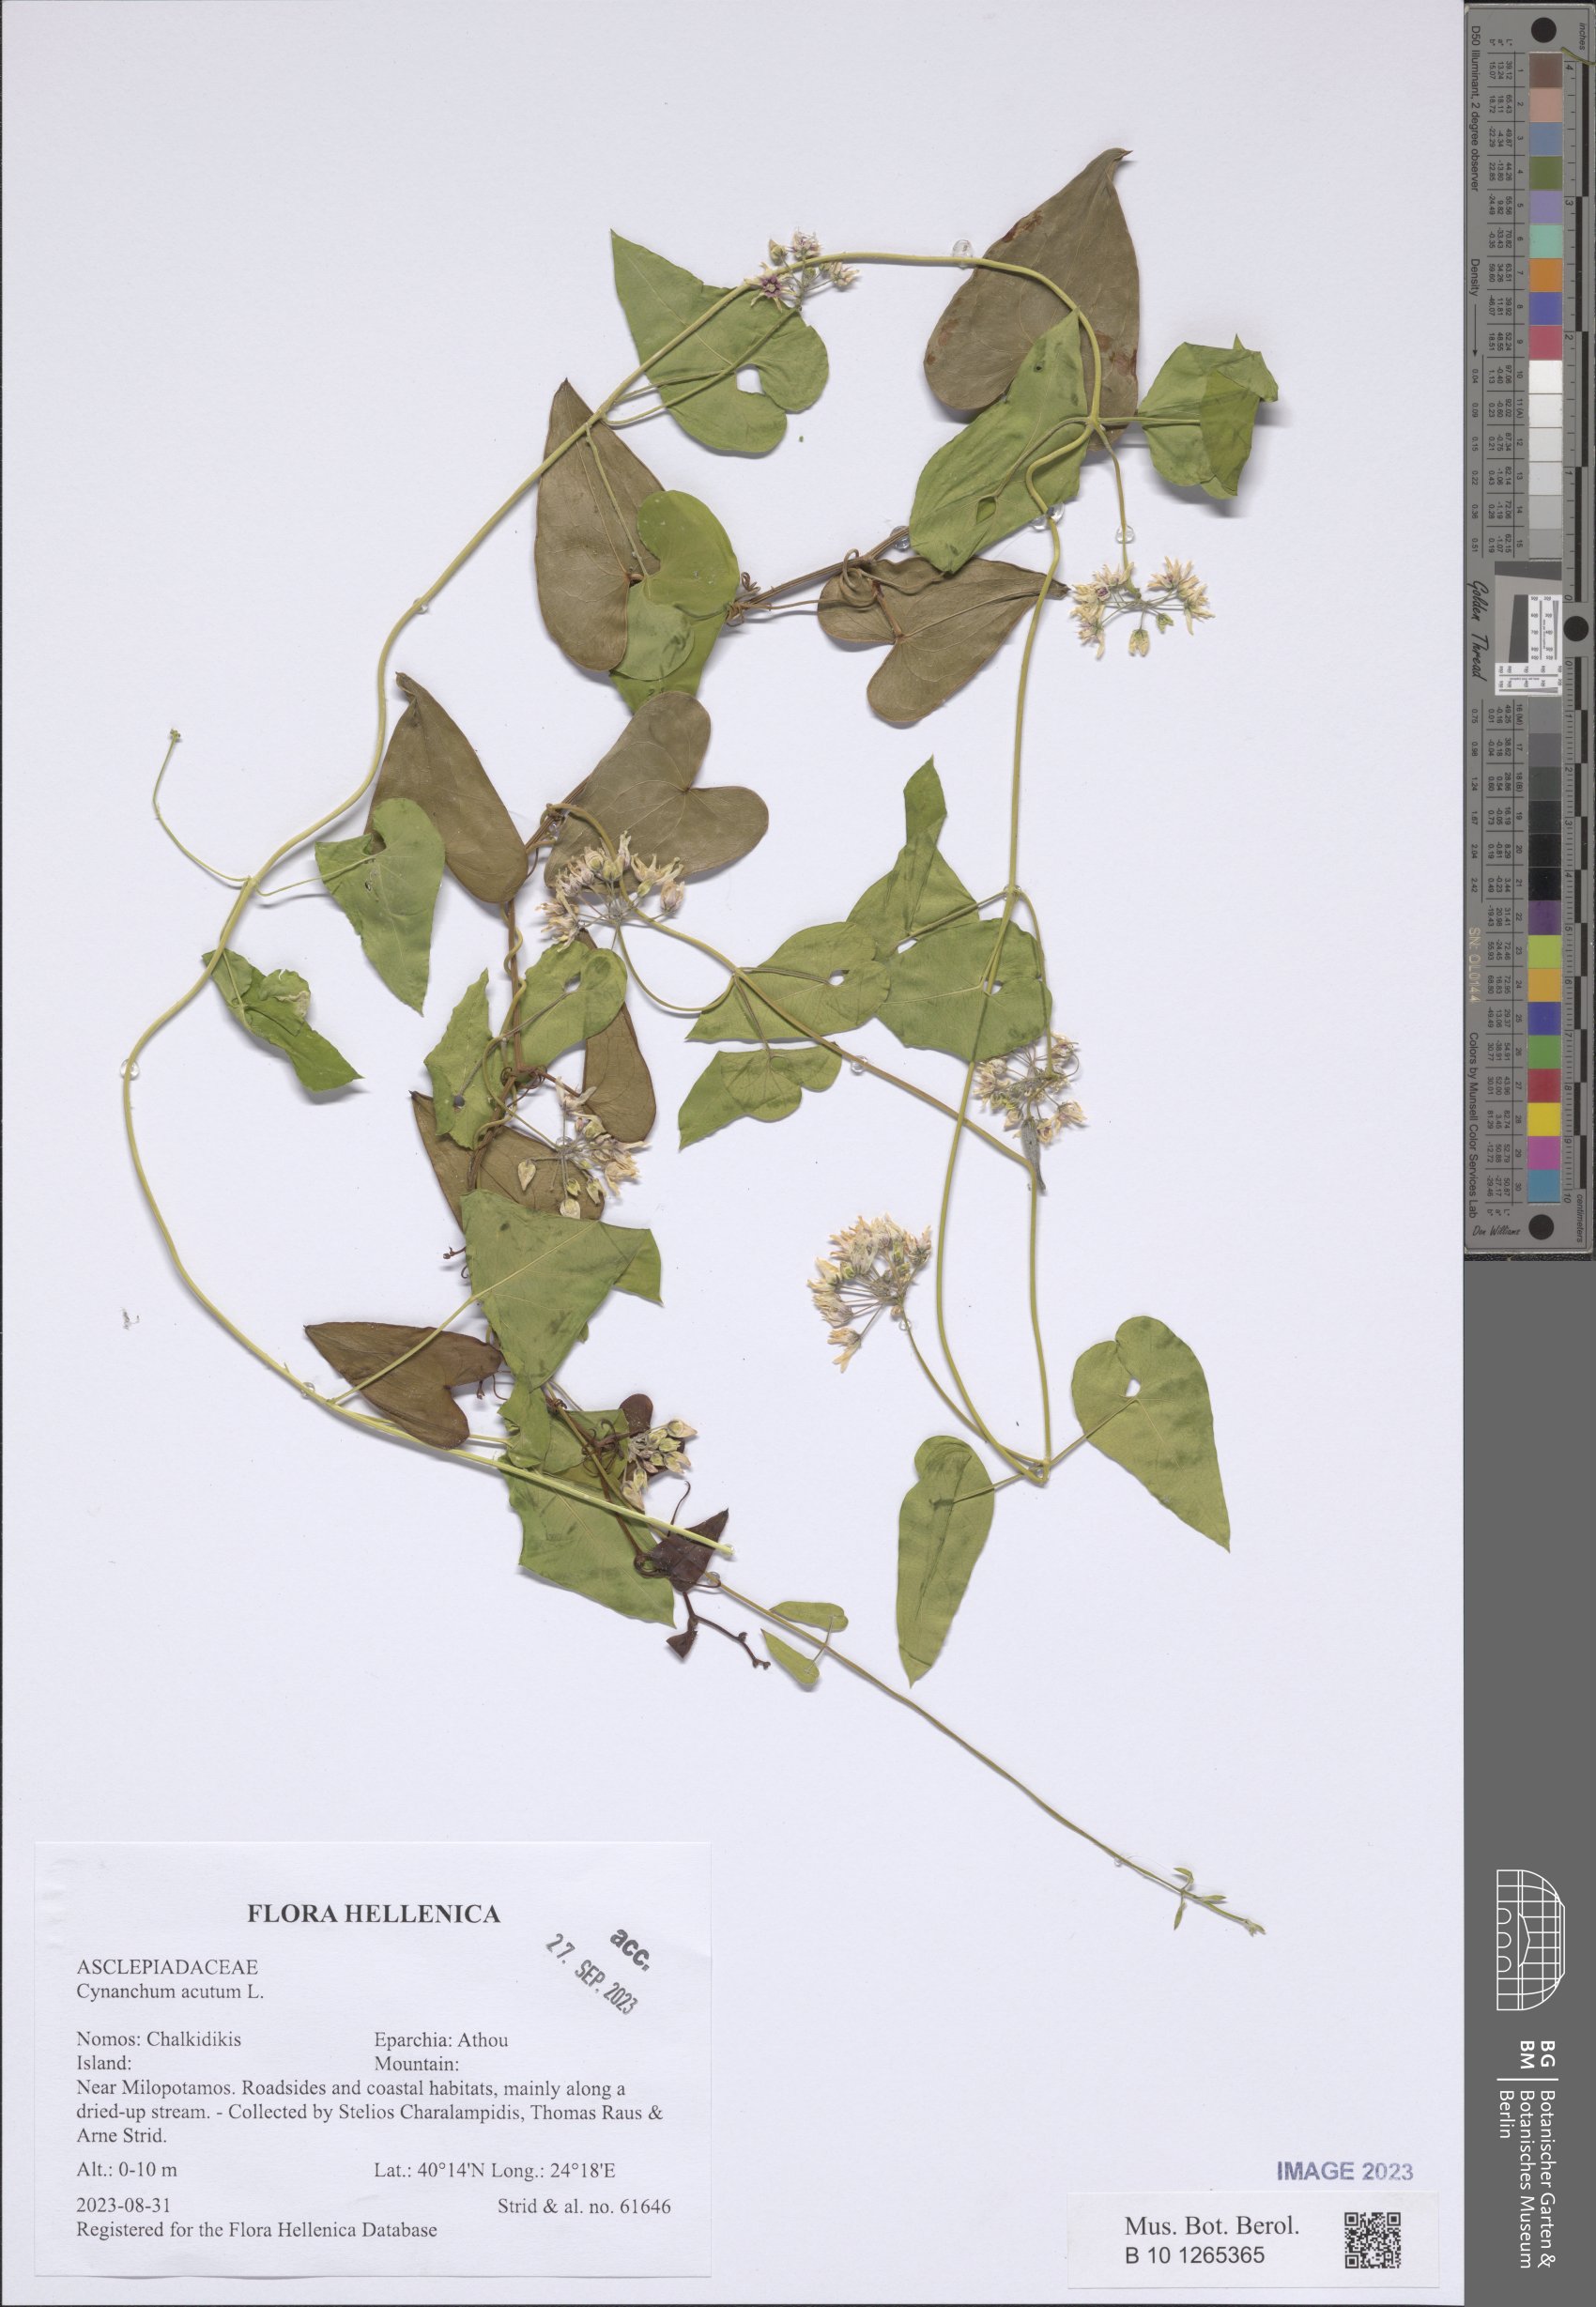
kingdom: Plantae
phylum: Tracheophyta
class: Magnoliopsida
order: Gentianales
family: Apocynaceae
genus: Cynanchum
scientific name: Cynanchum acutum
